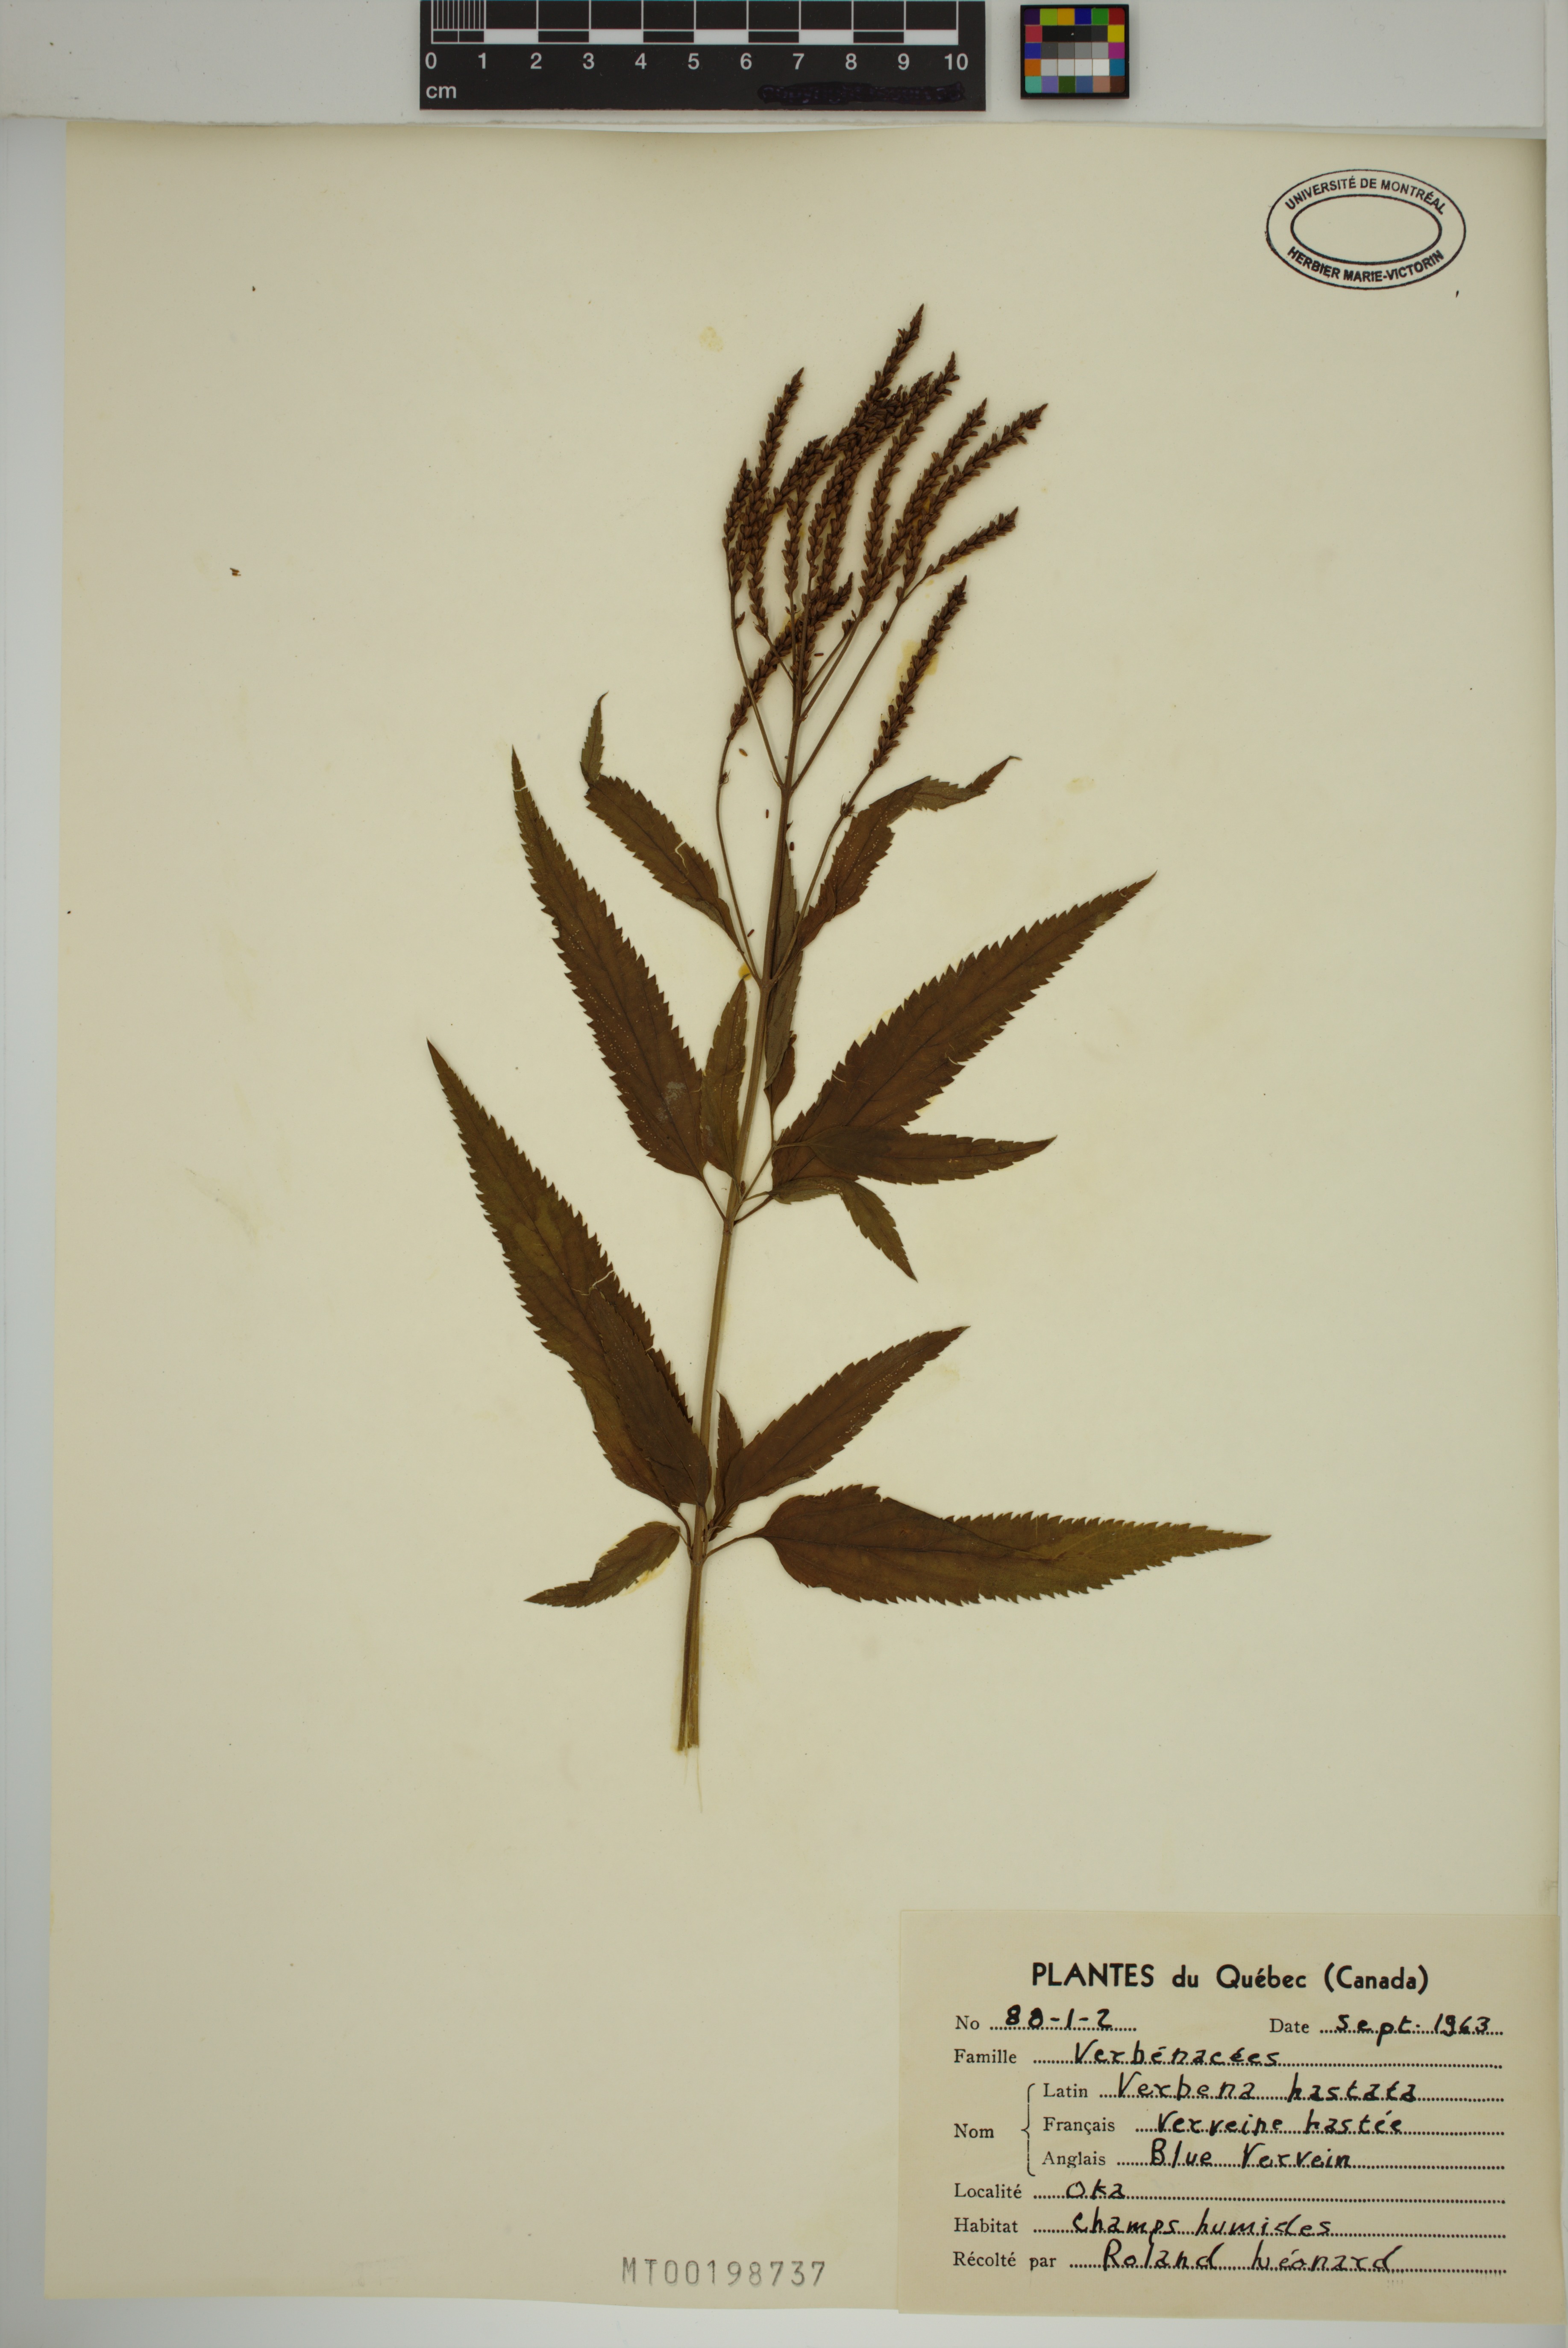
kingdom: Plantae
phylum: Tracheophyta
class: Magnoliopsida
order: Lamiales
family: Verbenaceae
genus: Verbena
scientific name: Verbena hastata
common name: American blue vervain
